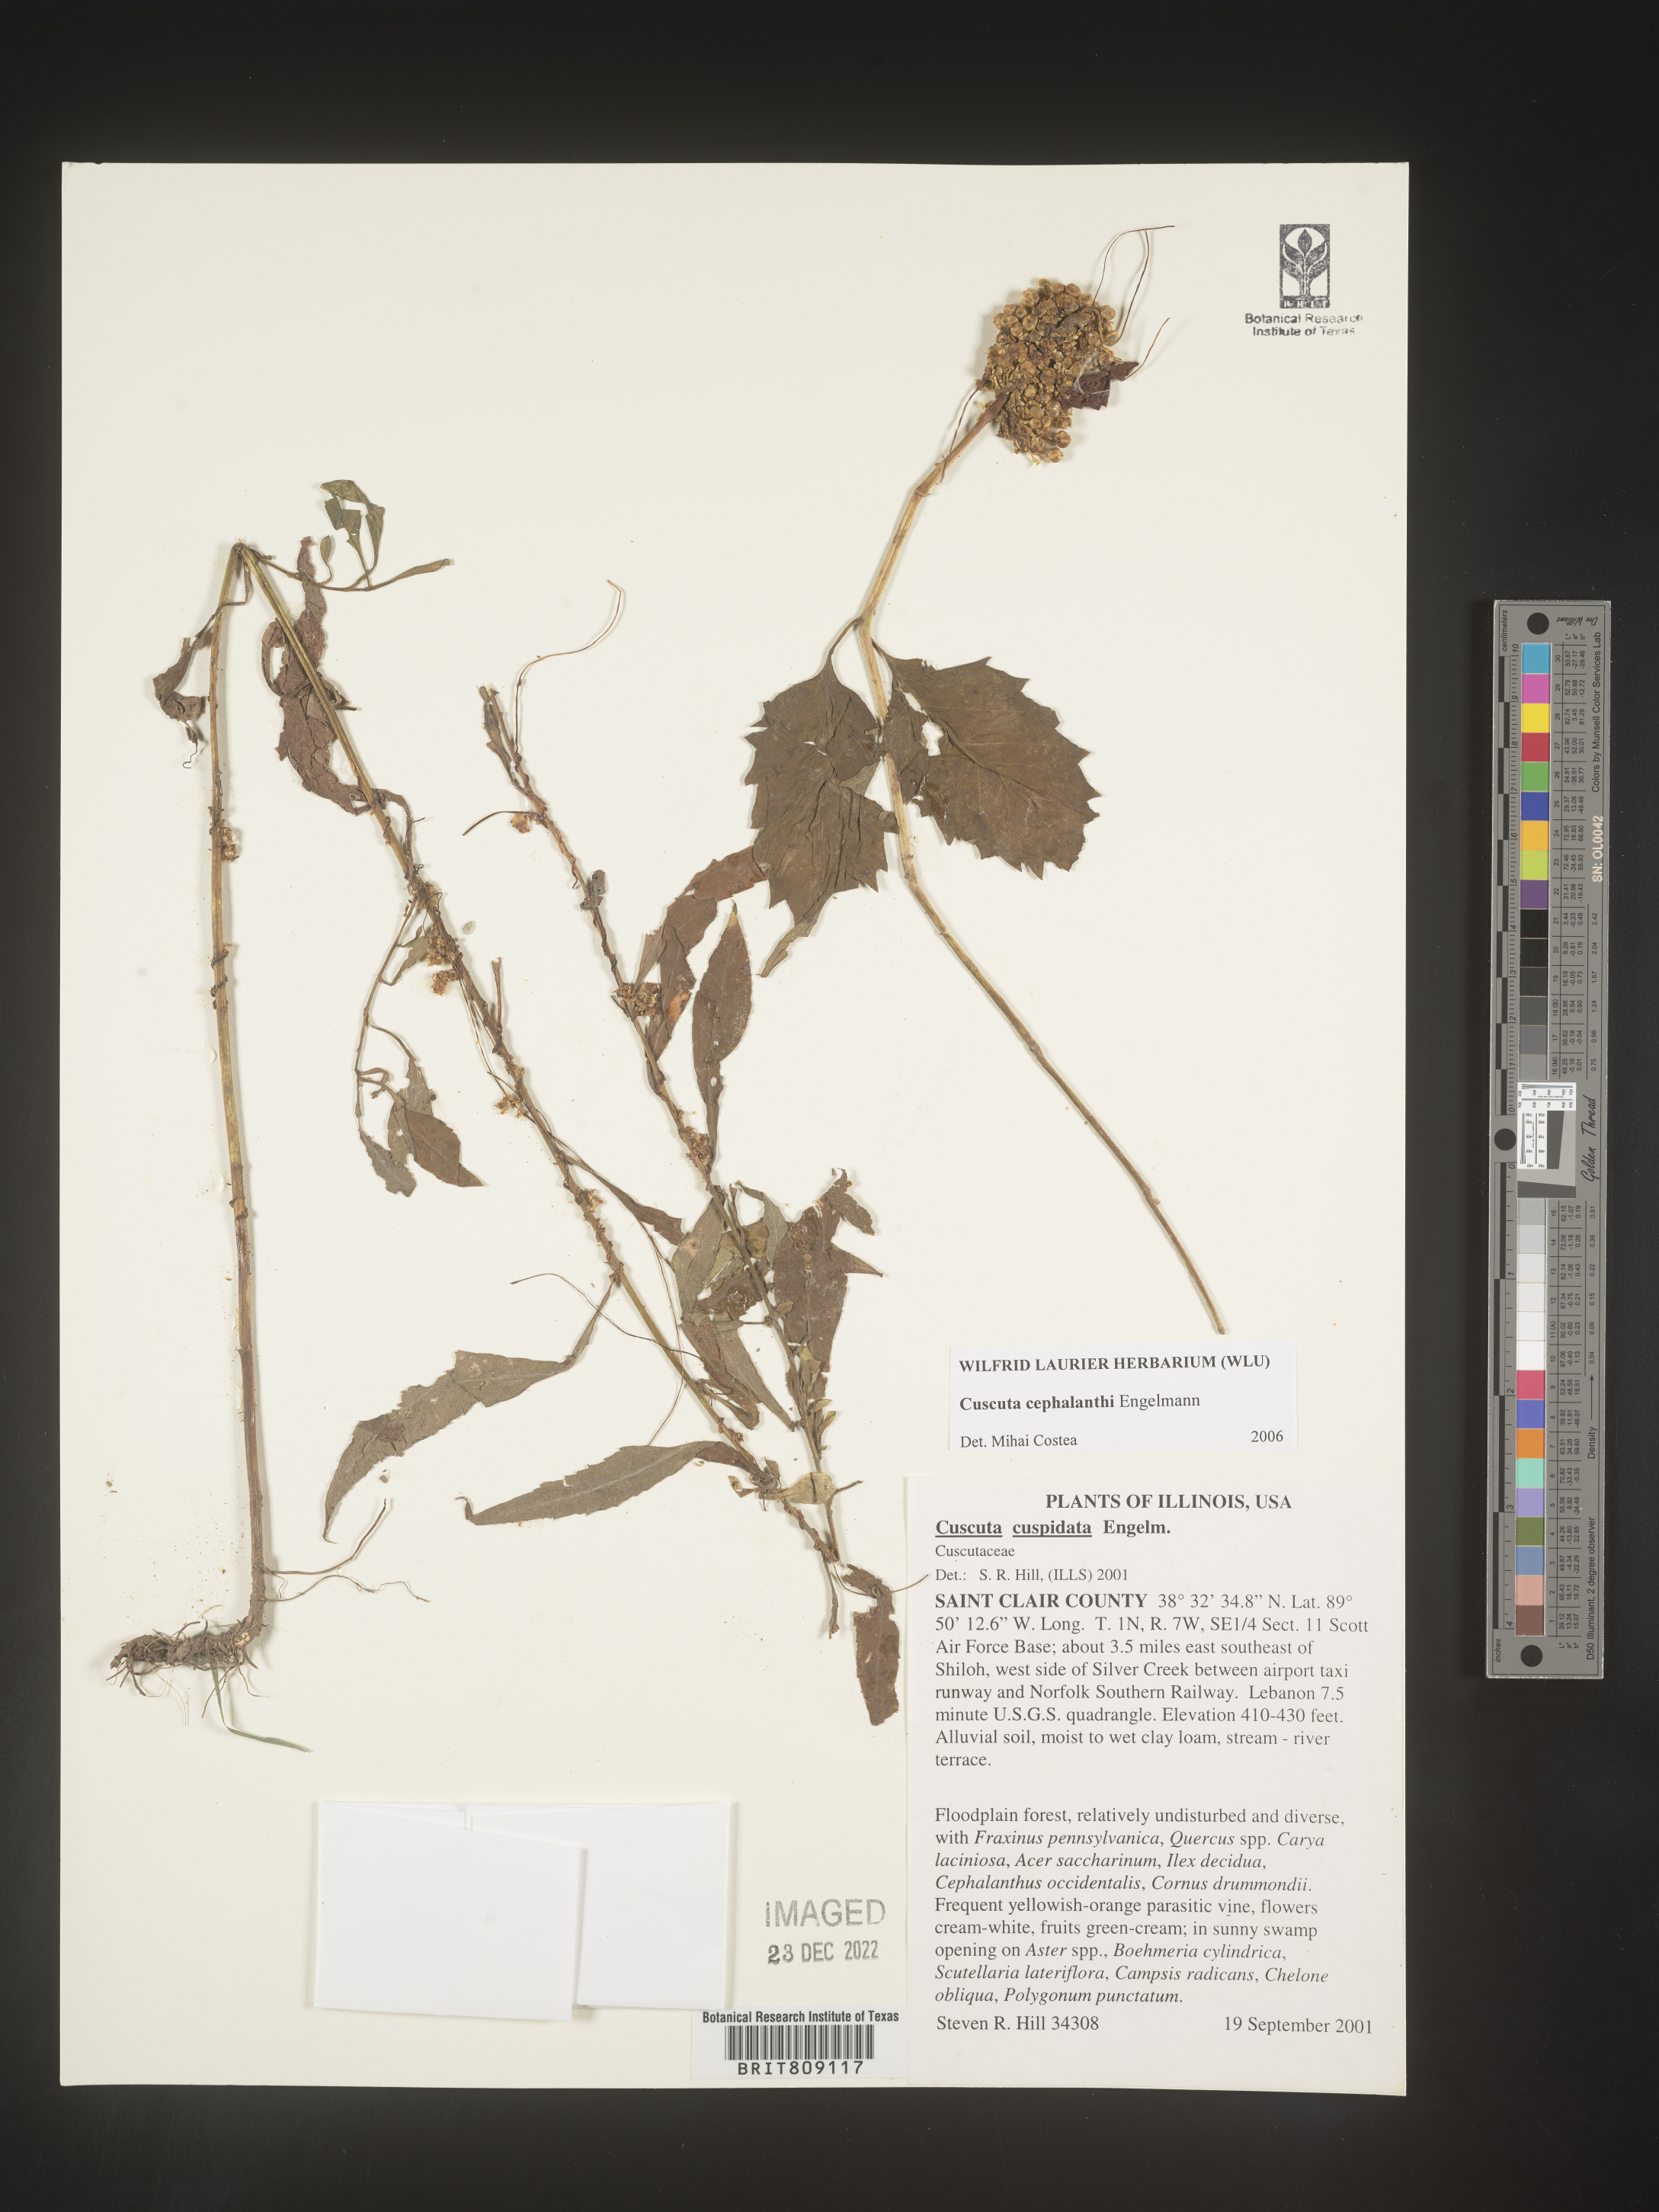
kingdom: Plantae
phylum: Tracheophyta
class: Magnoliopsida
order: Solanales
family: Convolvulaceae
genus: Cuscuta
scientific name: Cuscuta cephalanthi
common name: Button dodder
